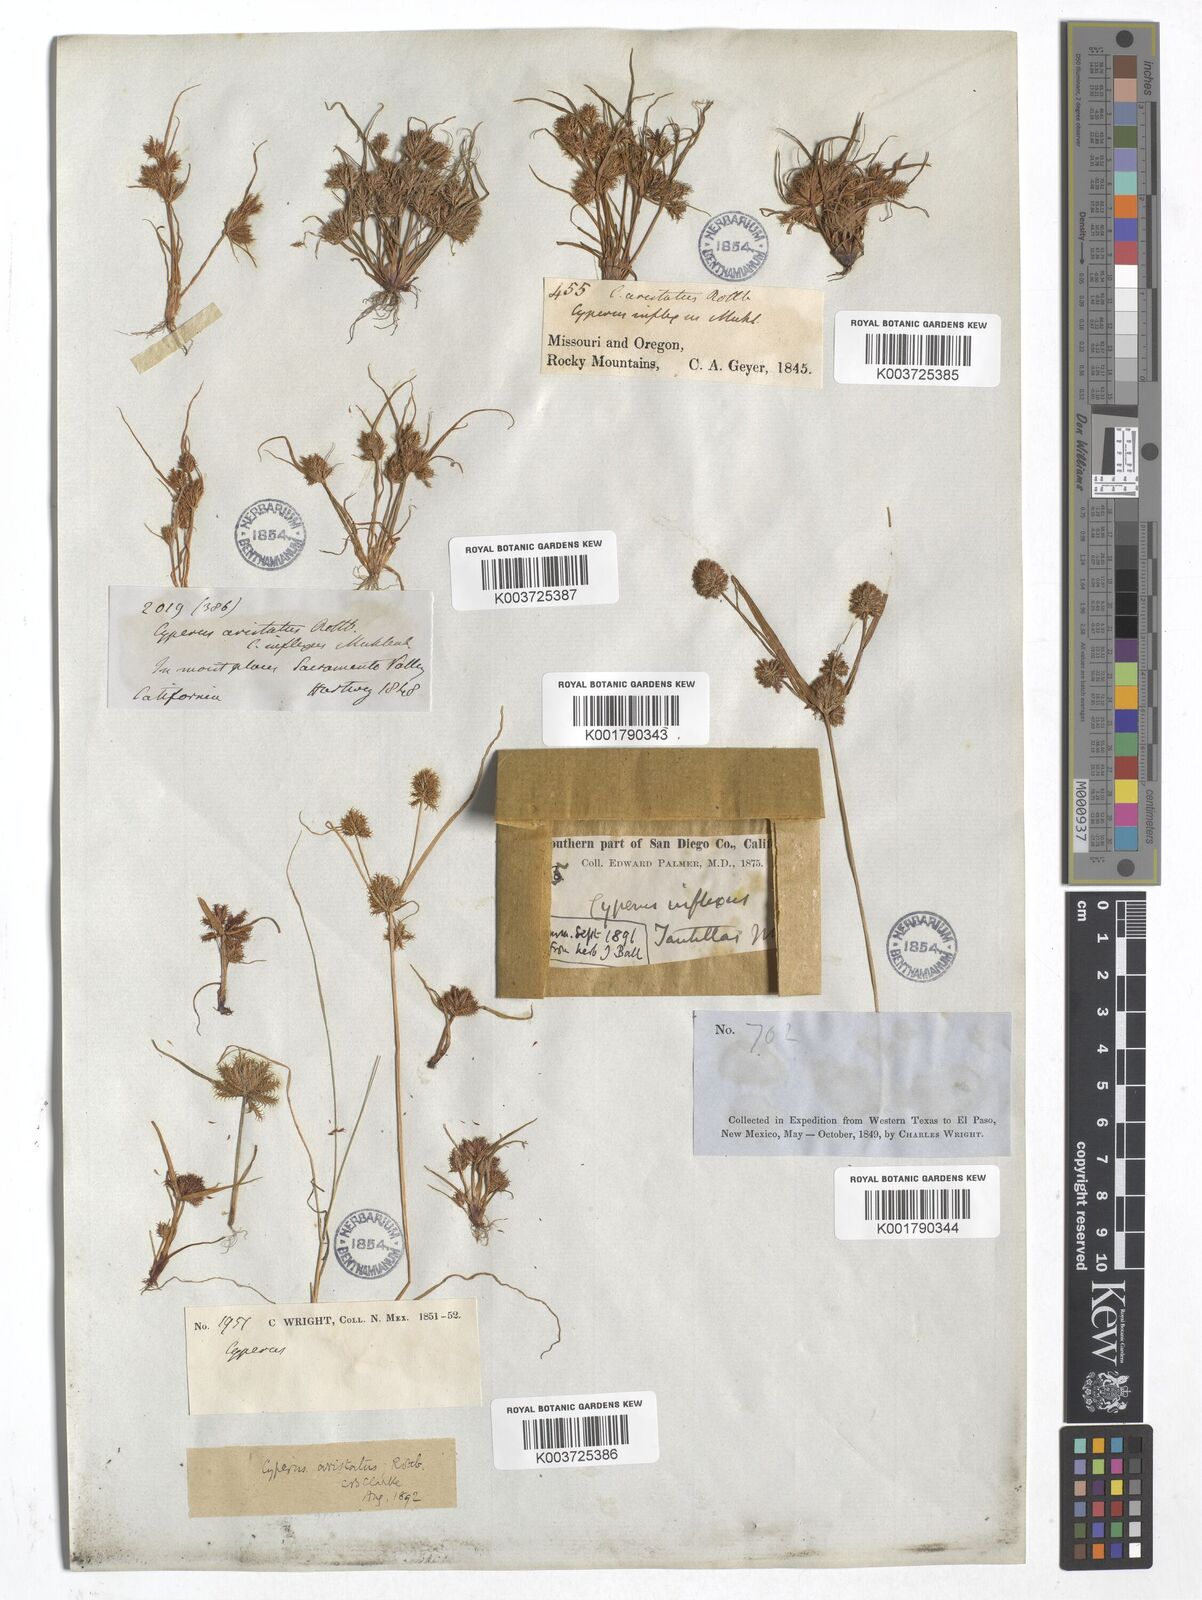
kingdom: Plantae
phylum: Tracheophyta
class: Liliopsida
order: Poales
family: Cyperaceae
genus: Cyperus
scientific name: Cyperus squarrosus
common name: Awned cyperus
